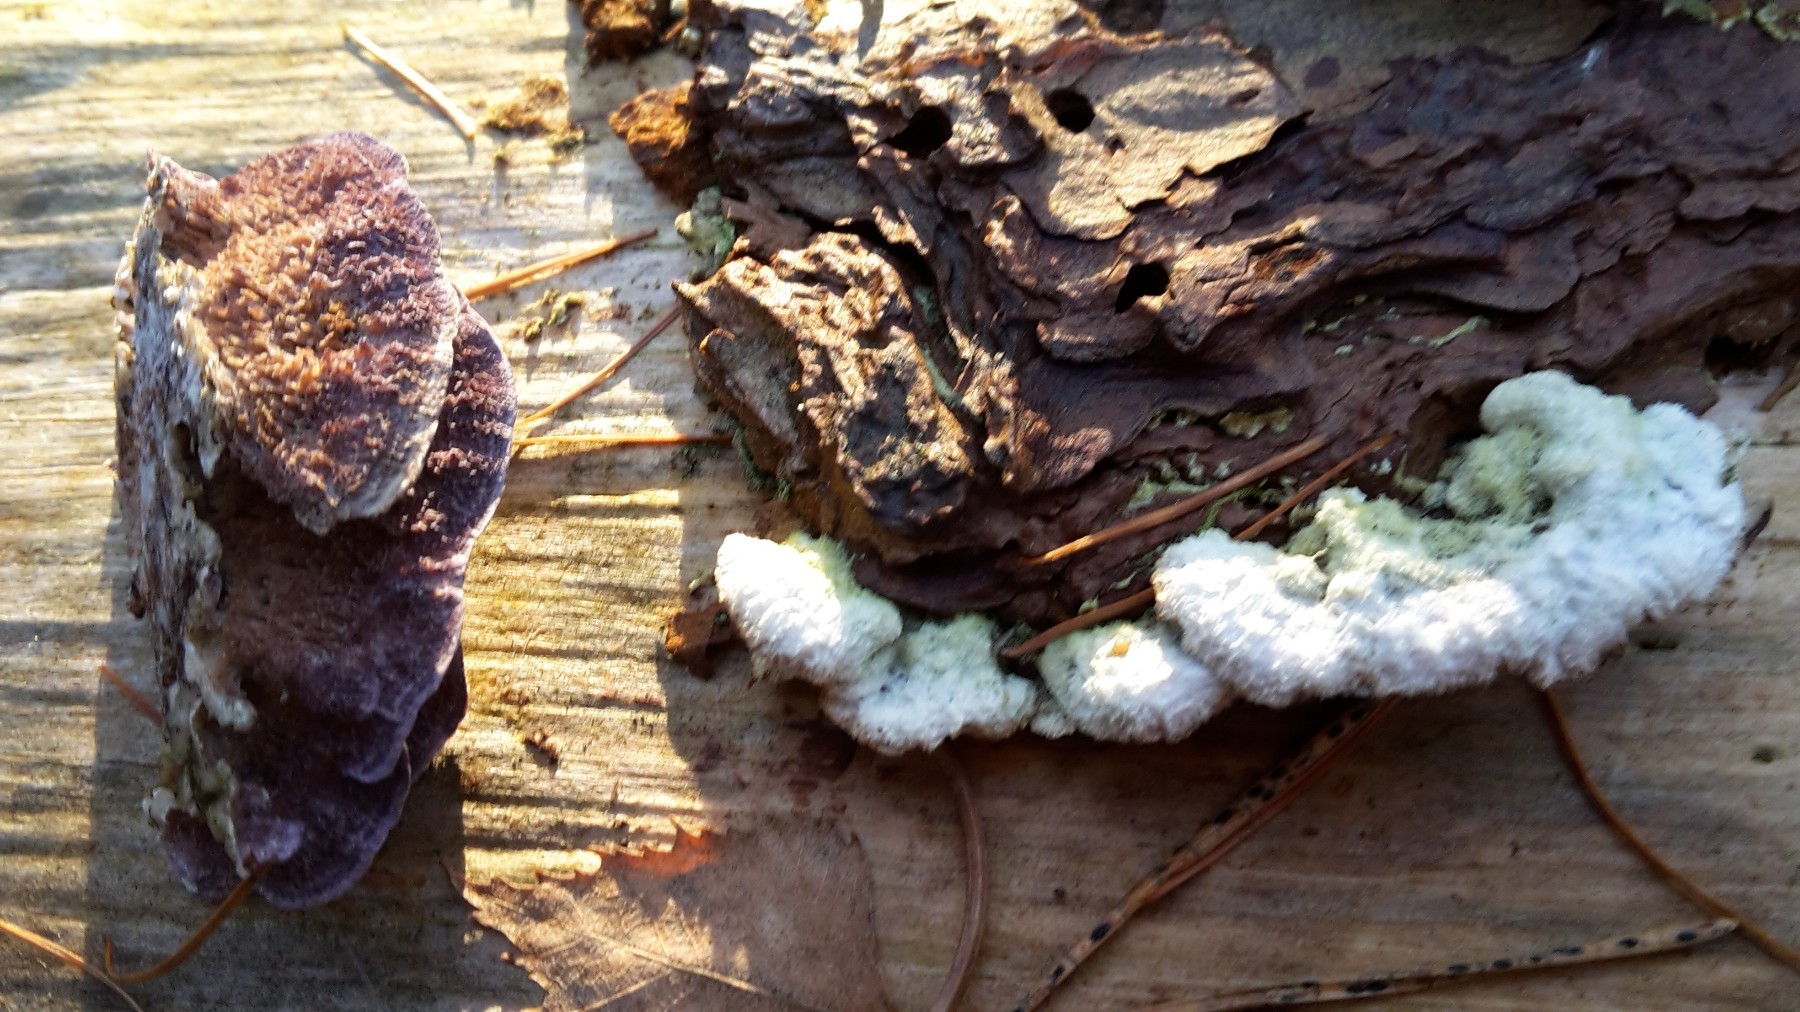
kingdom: Fungi
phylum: Basidiomycota
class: Agaricomycetes
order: Hymenochaetales
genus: Trichaptum
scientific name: Trichaptum abietinum
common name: almindelig violporesvamp
